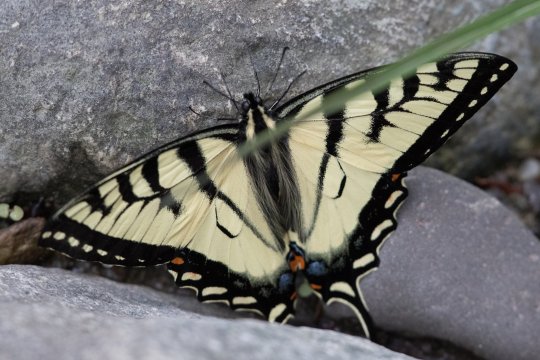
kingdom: Animalia
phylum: Arthropoda
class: Insecta
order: Lepidoptera
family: Papilionidae
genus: Pterourus
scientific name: Pterourus canadensis
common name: Canadian Tiger Swallowtail
